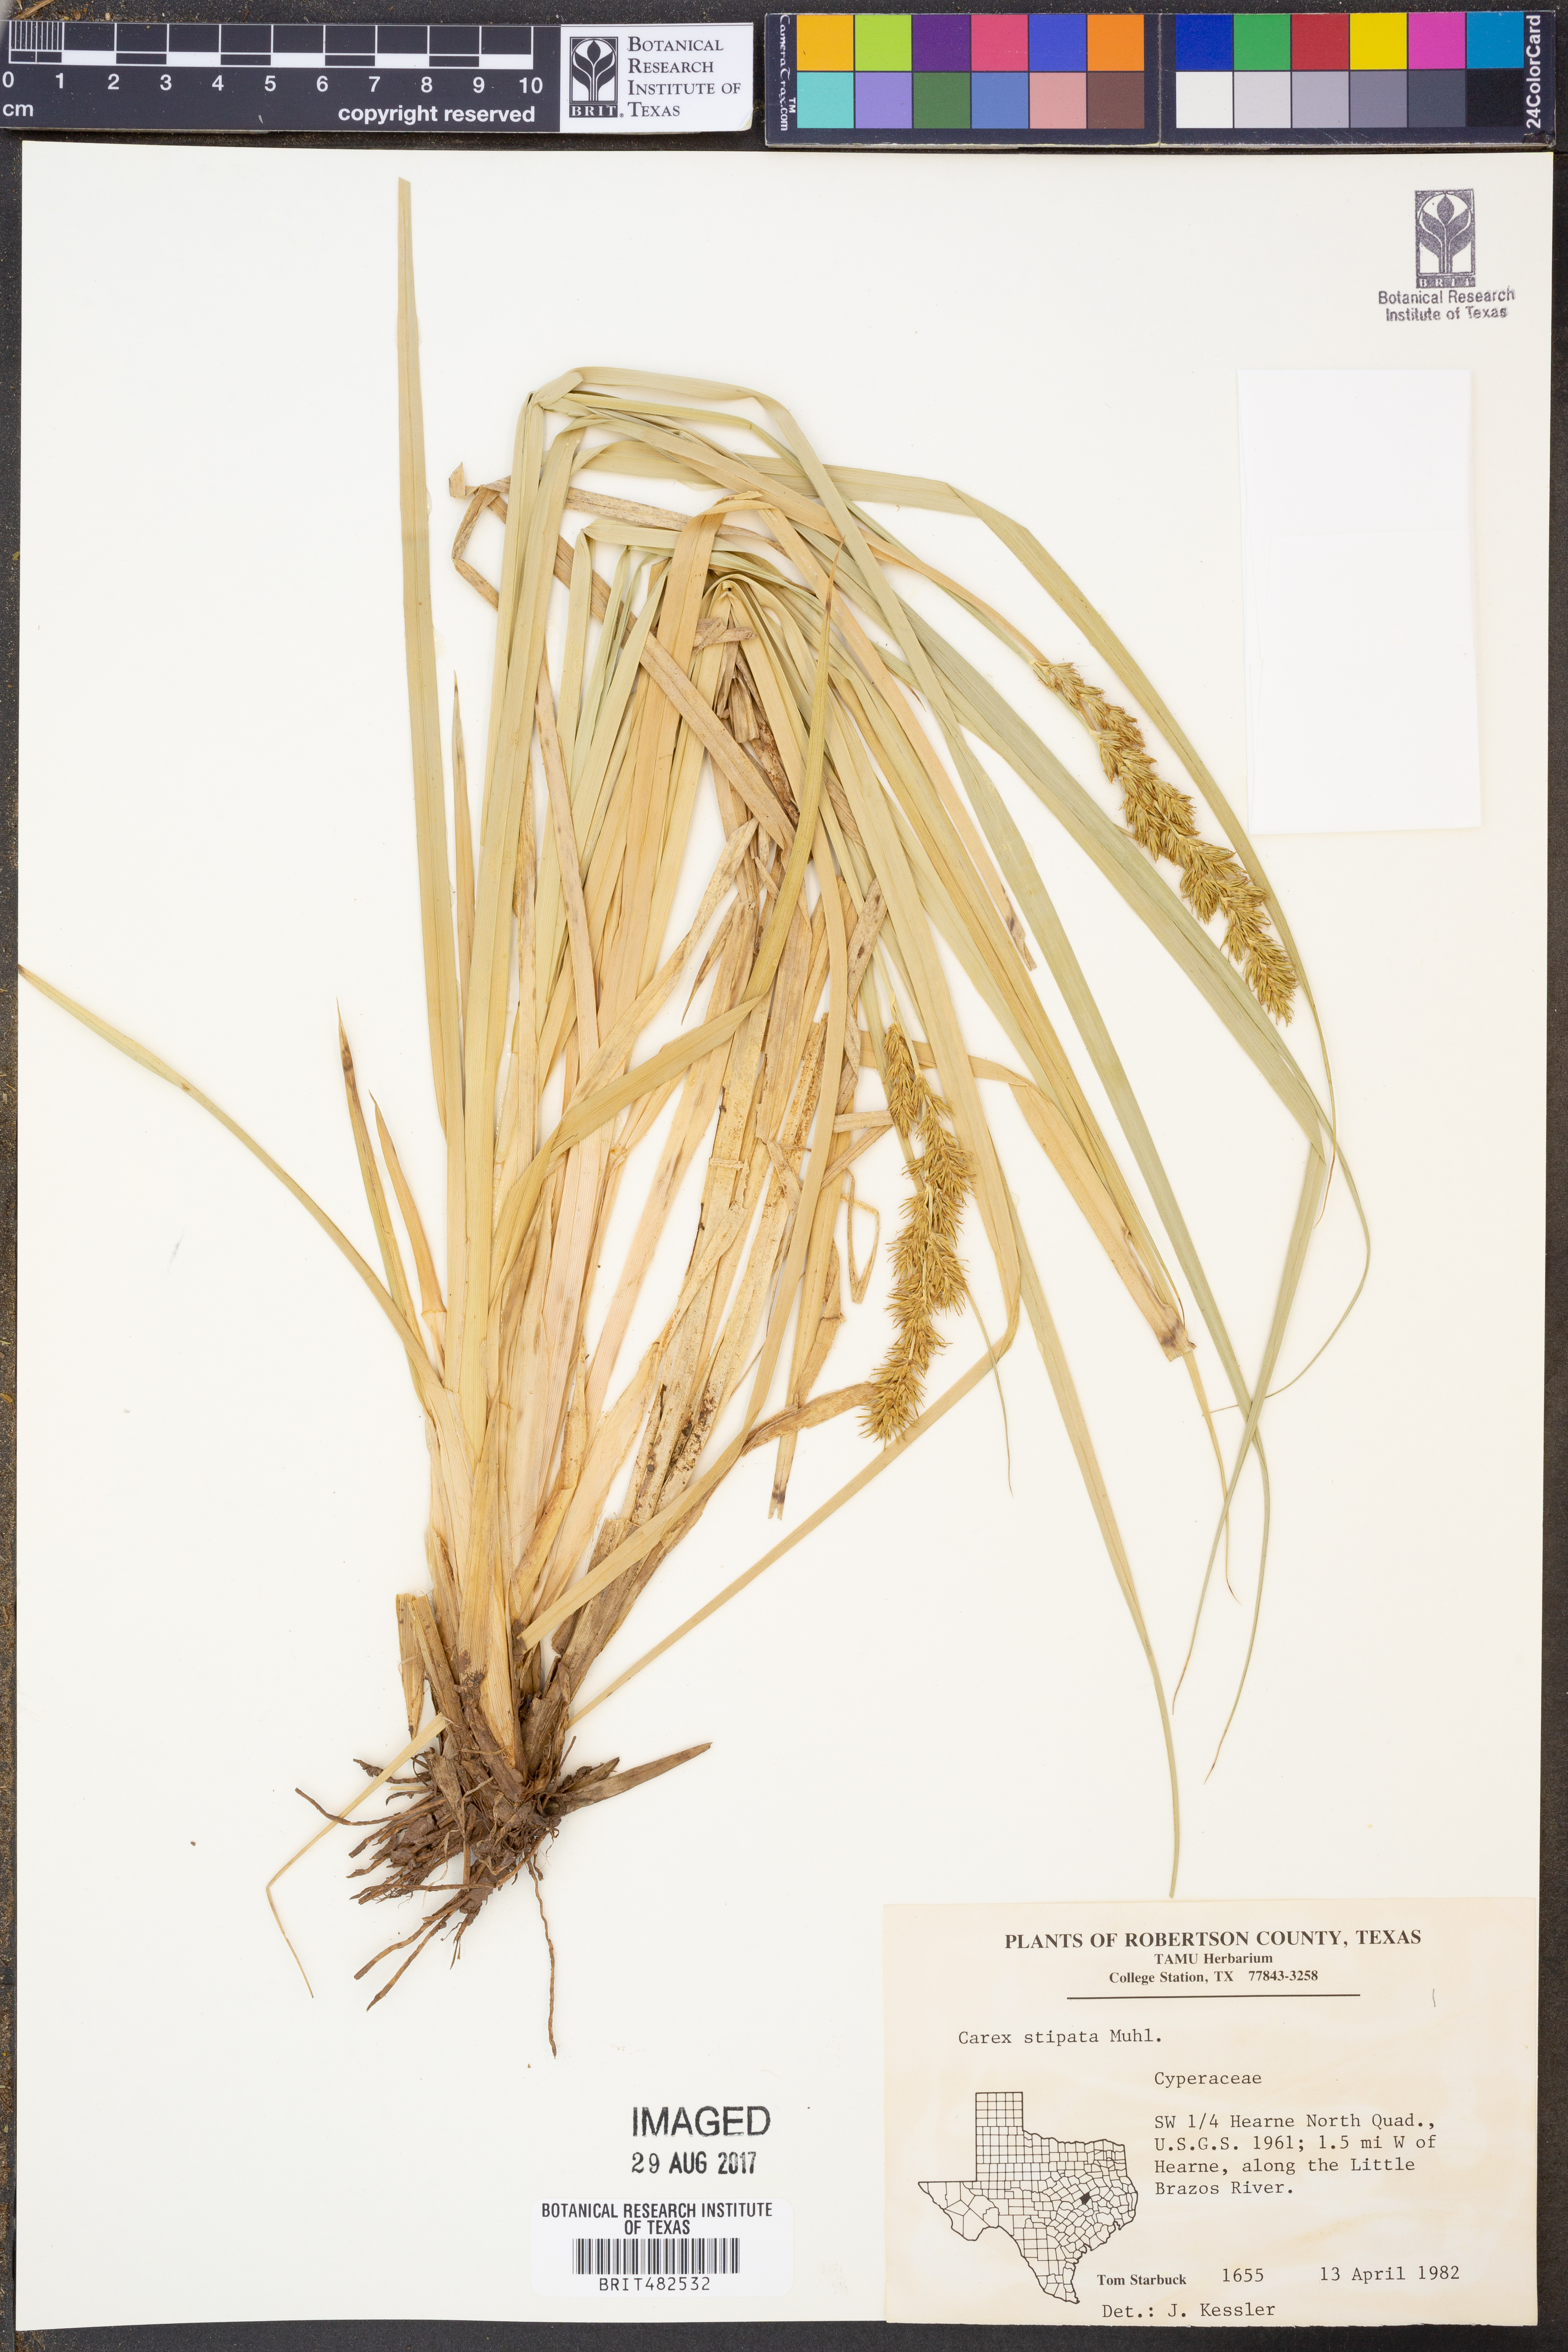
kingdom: Plantae
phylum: Tracheophyta
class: Liliopsida
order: Poales
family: Cyperaceae
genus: Carex
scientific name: Carex stipata
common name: Awl-fruited sedge
